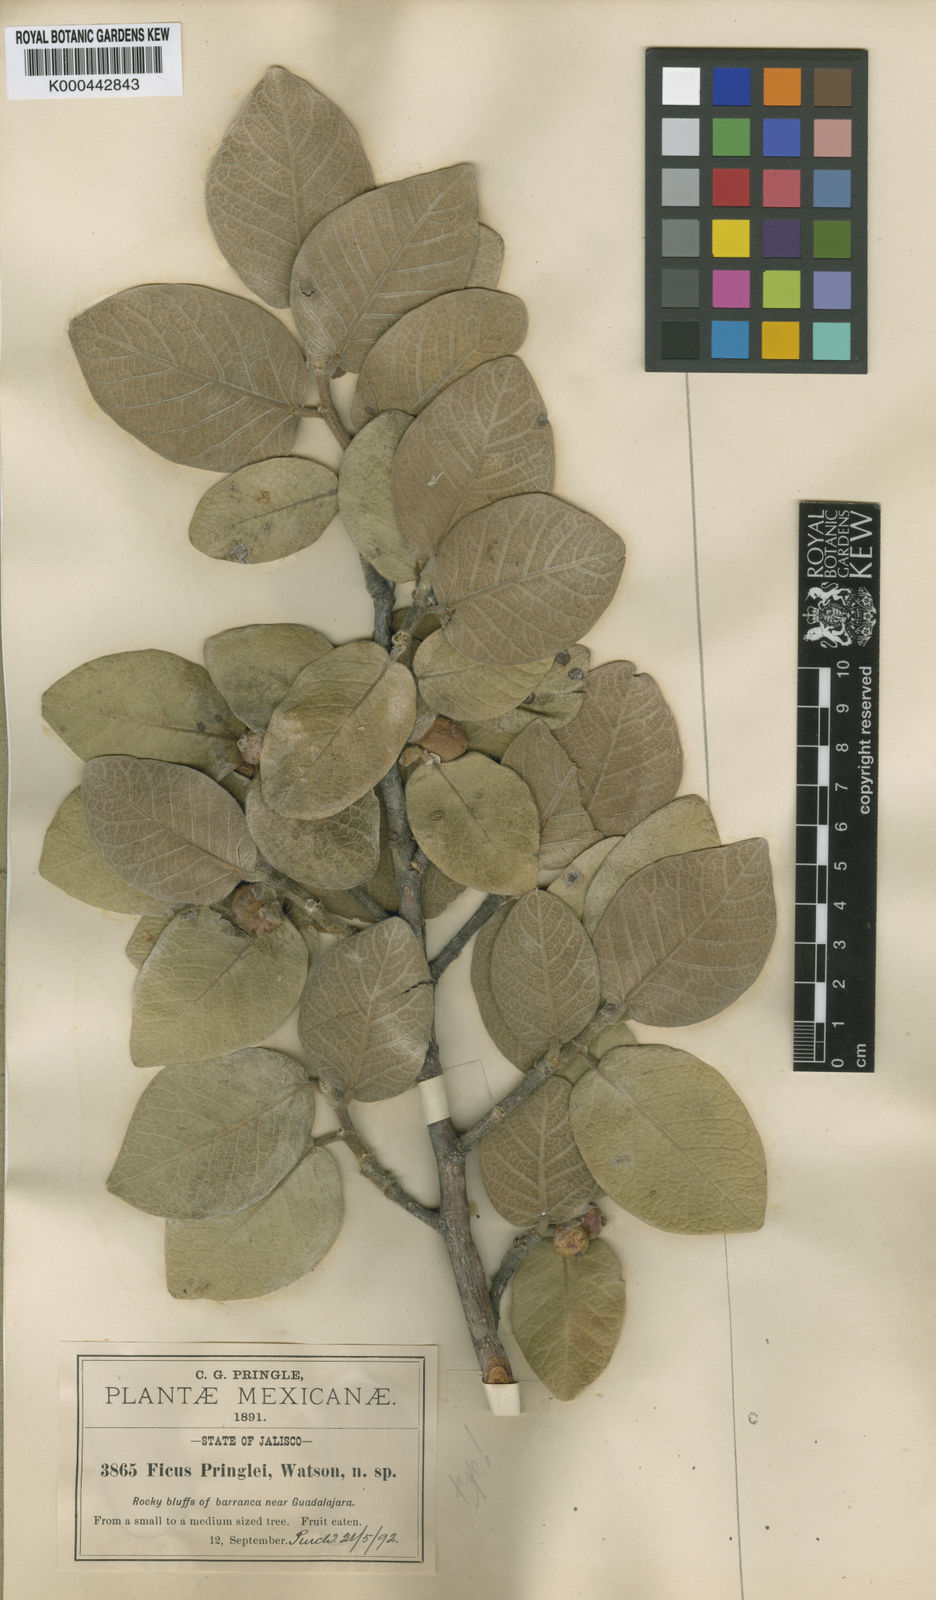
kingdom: Plantae
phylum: Tracheophyta
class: Magnoliopsida
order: Rosales
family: Moraceae
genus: Ficus
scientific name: Ficus pringlei
